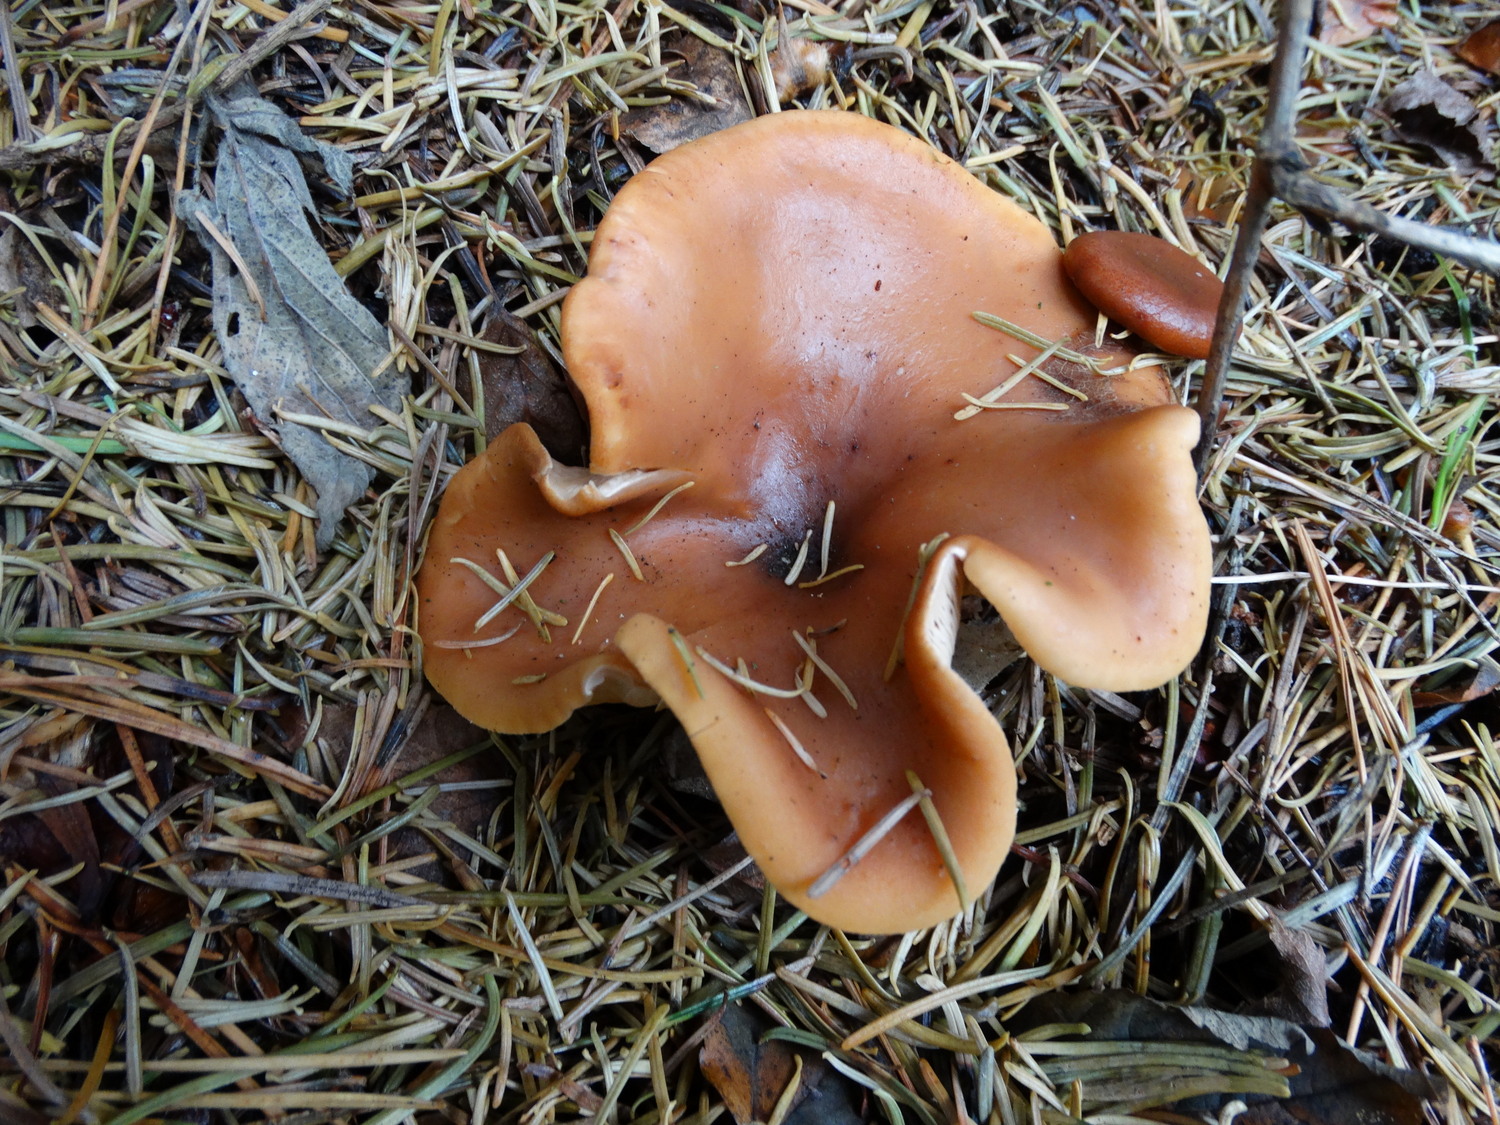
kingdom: Fungi
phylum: Basidiomycota
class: Agaricomycetes
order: Agaricales
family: Tricholomataceae
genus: Paralepista
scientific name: Paralepista flaccida
